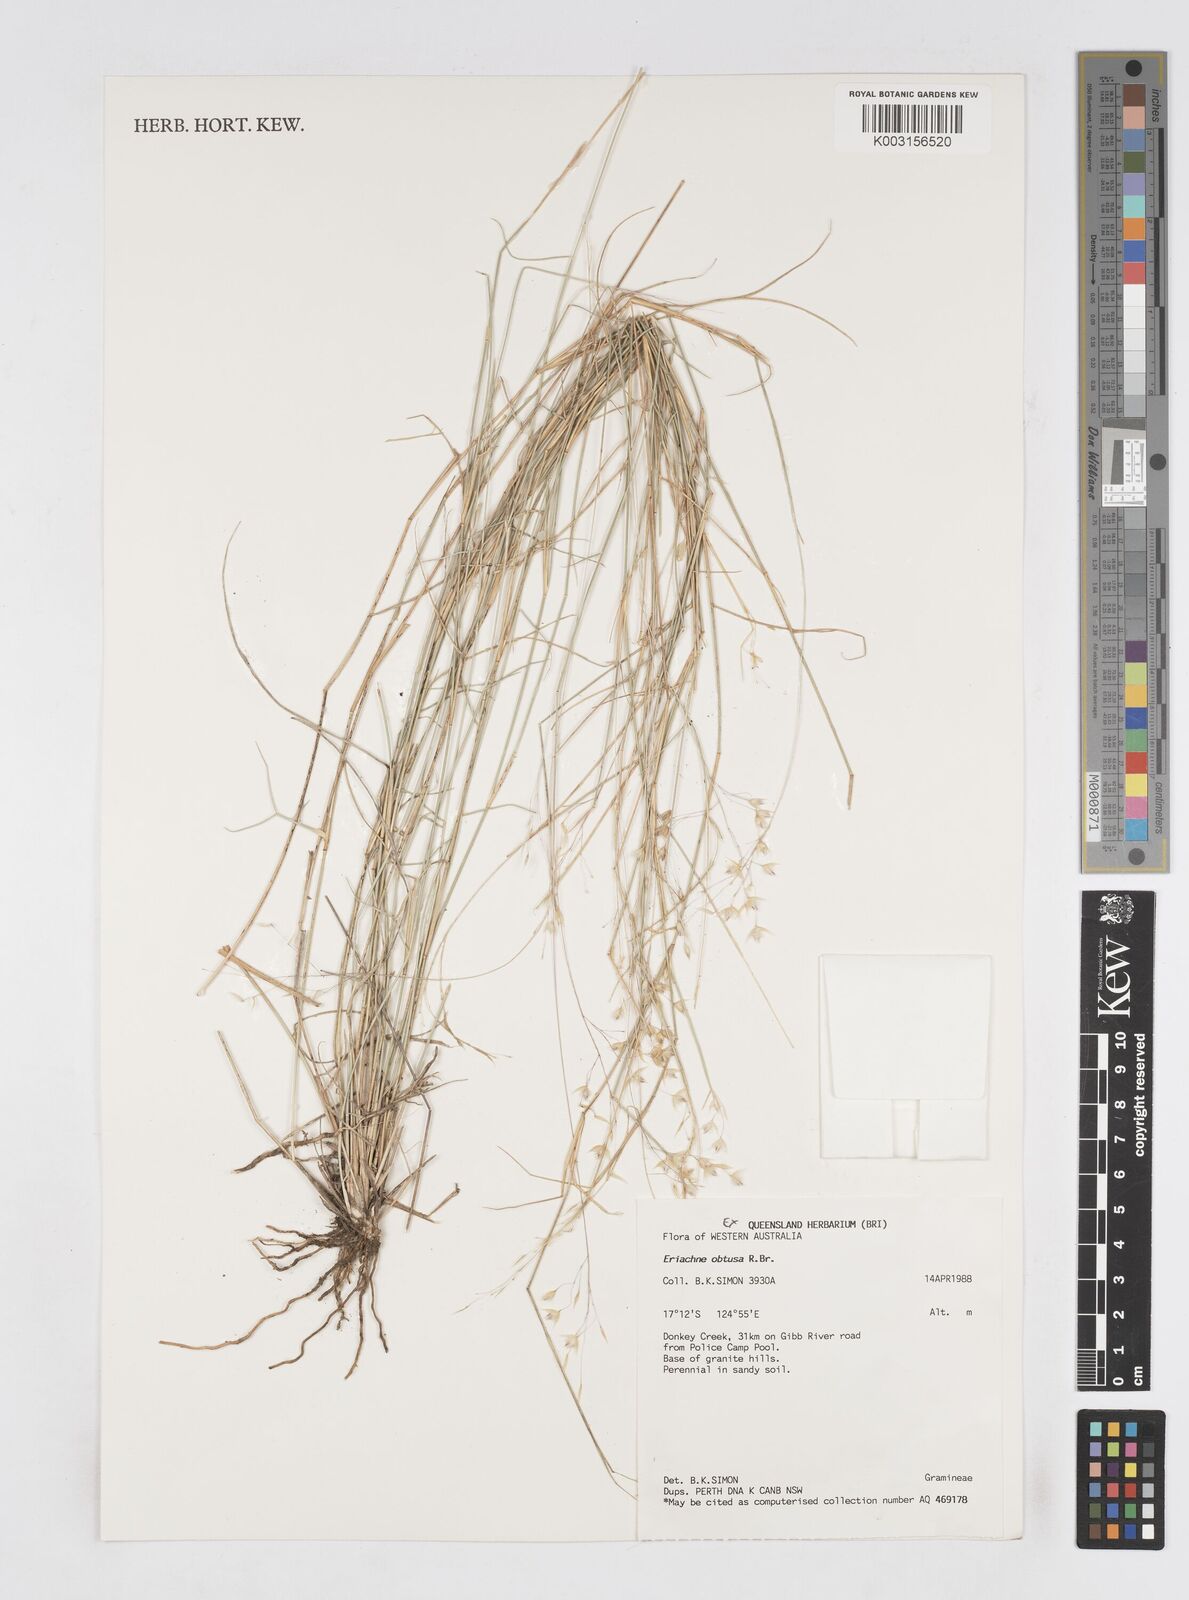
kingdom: Plantae
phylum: Tracheophyta
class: Liliopsida
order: Poales
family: Poaceae
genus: Eriachne
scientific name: Eriachne obtusa
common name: Northern wanderrie grass
